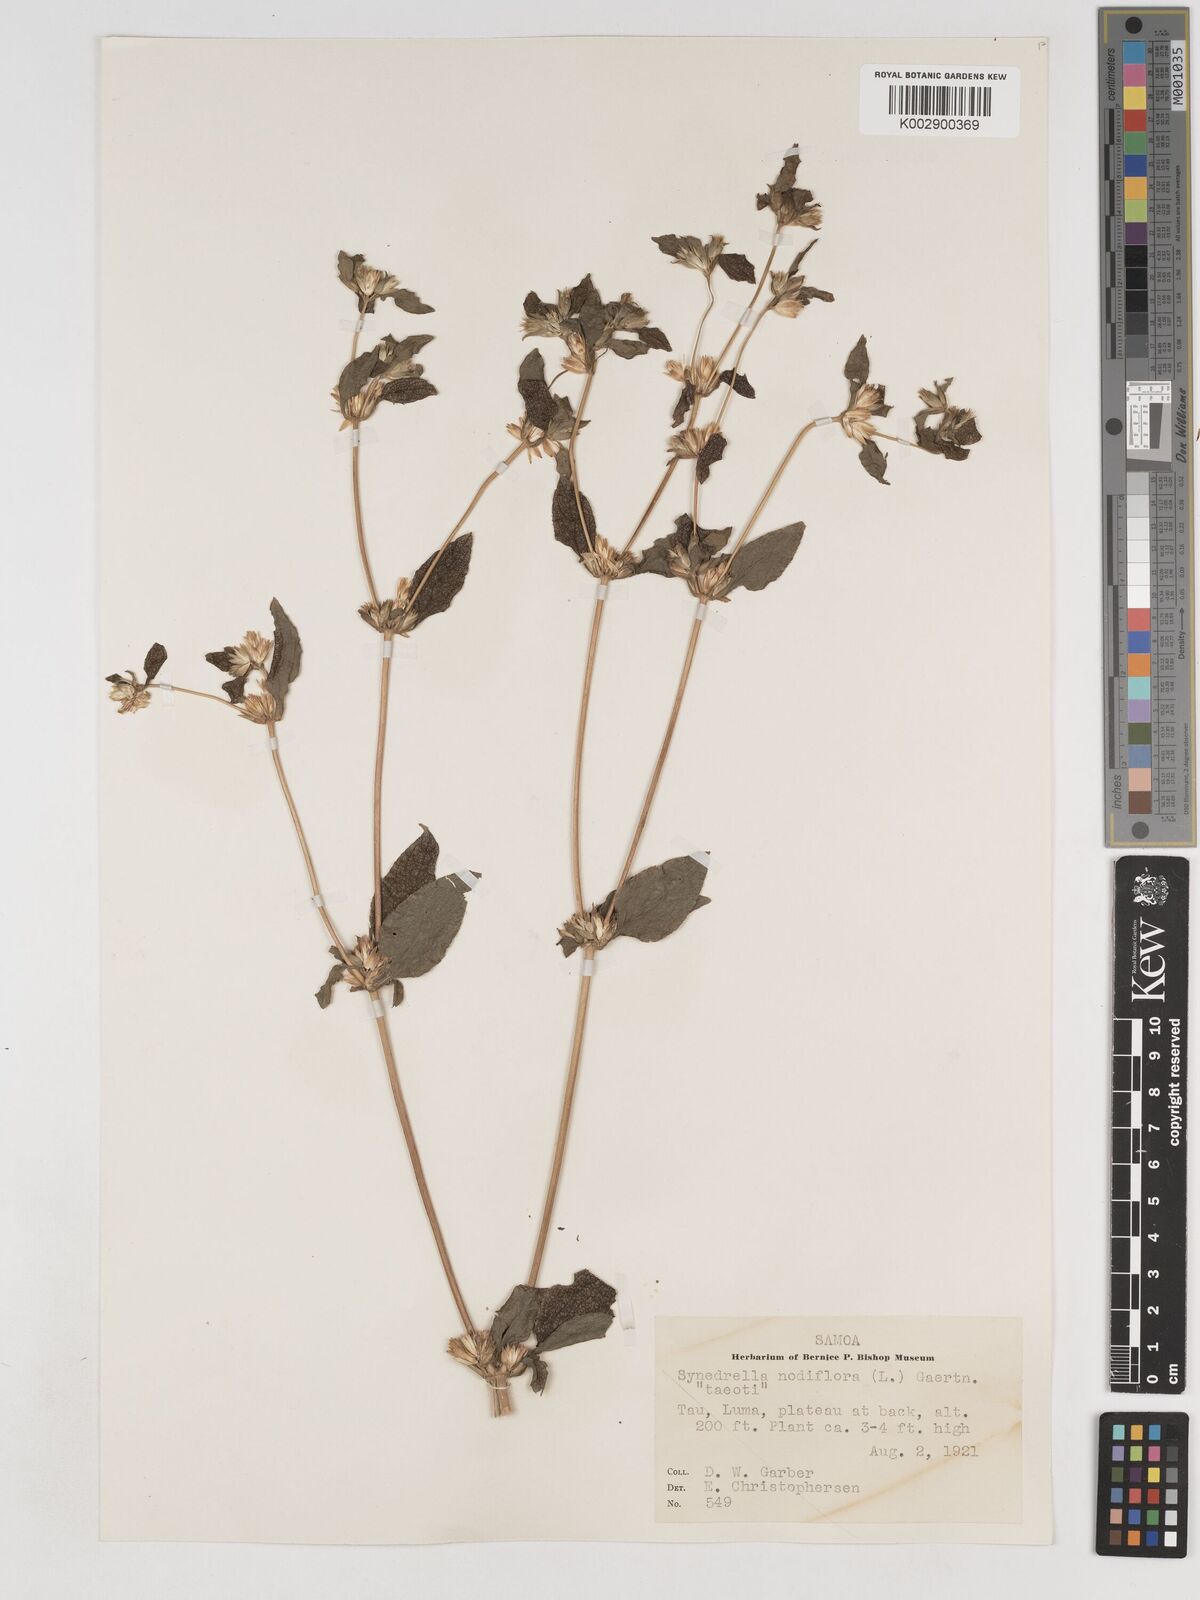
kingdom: Plantae
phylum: Tracheophyta
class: Magnoliopsida
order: Asterales
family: Asteraceae
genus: Synedrella
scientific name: Synedrella nodiflora
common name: Nodeweed
